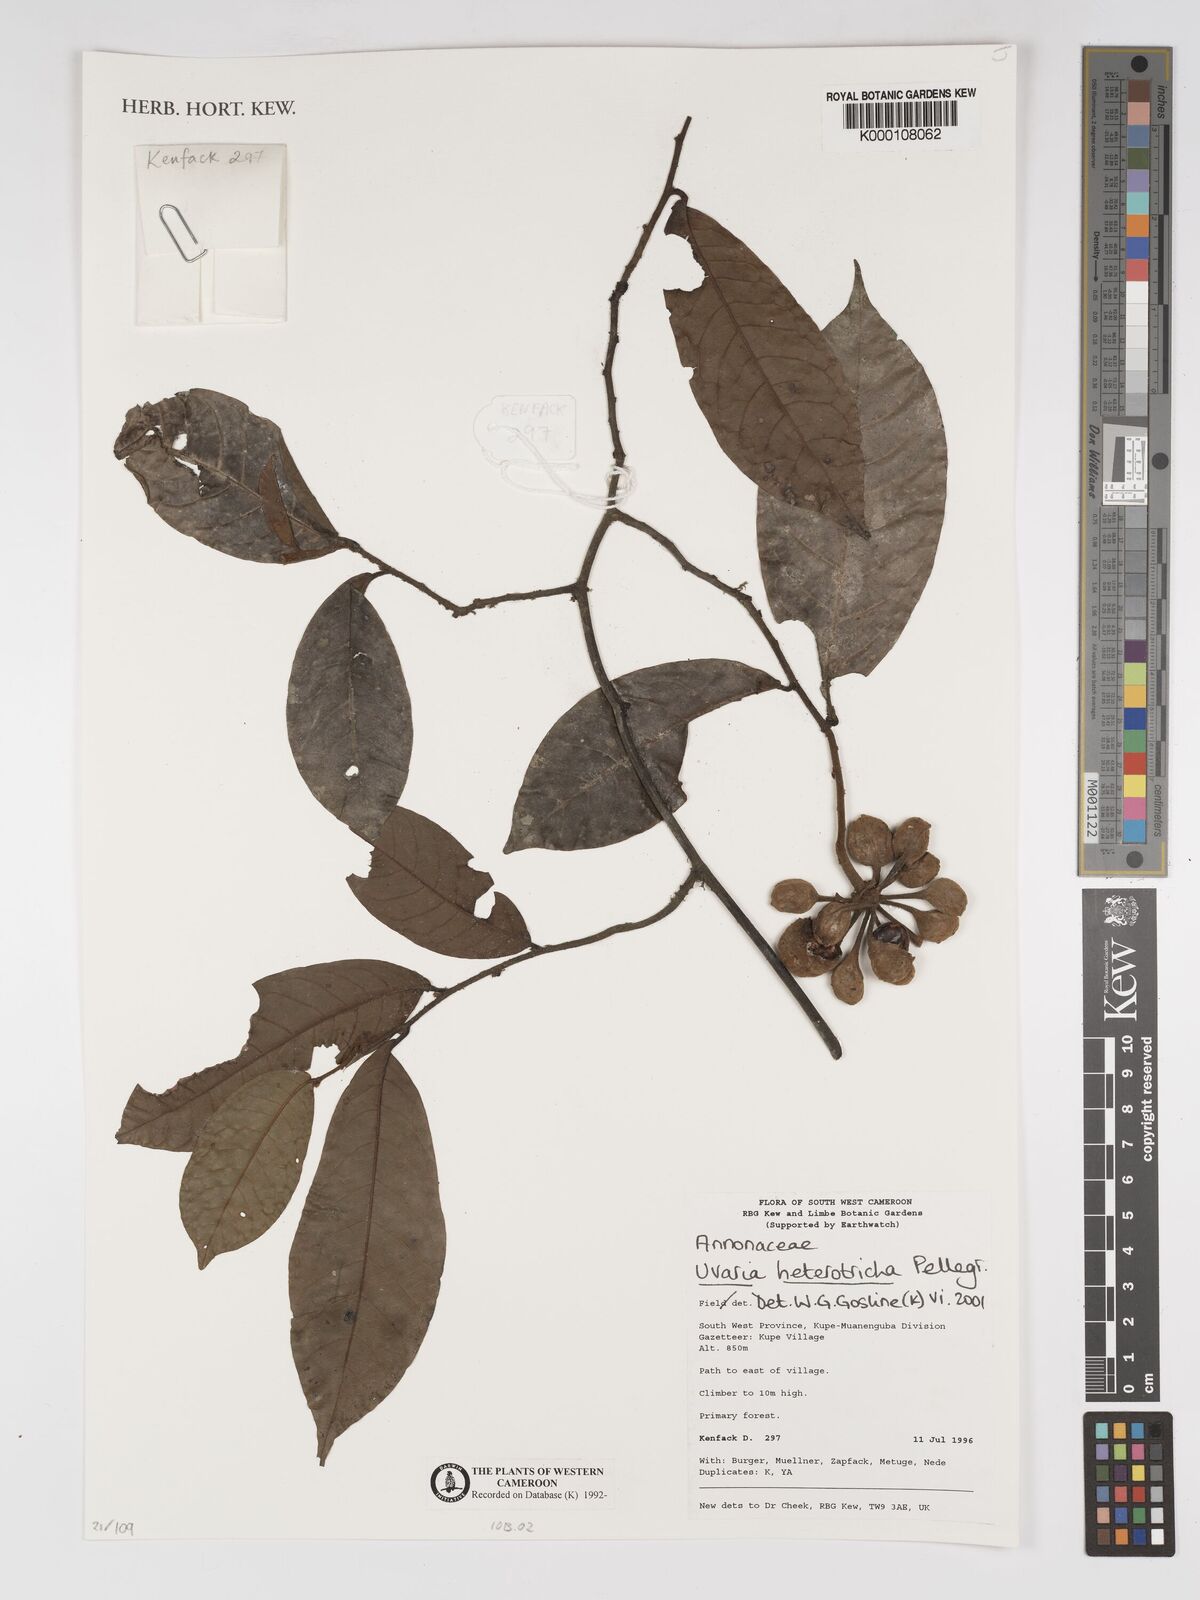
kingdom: Plantae
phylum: Tracheophyta
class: Magnoliopsida
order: Magnoliales
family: Annonaceae
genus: Uvaria
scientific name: Uvaria heterotricha
